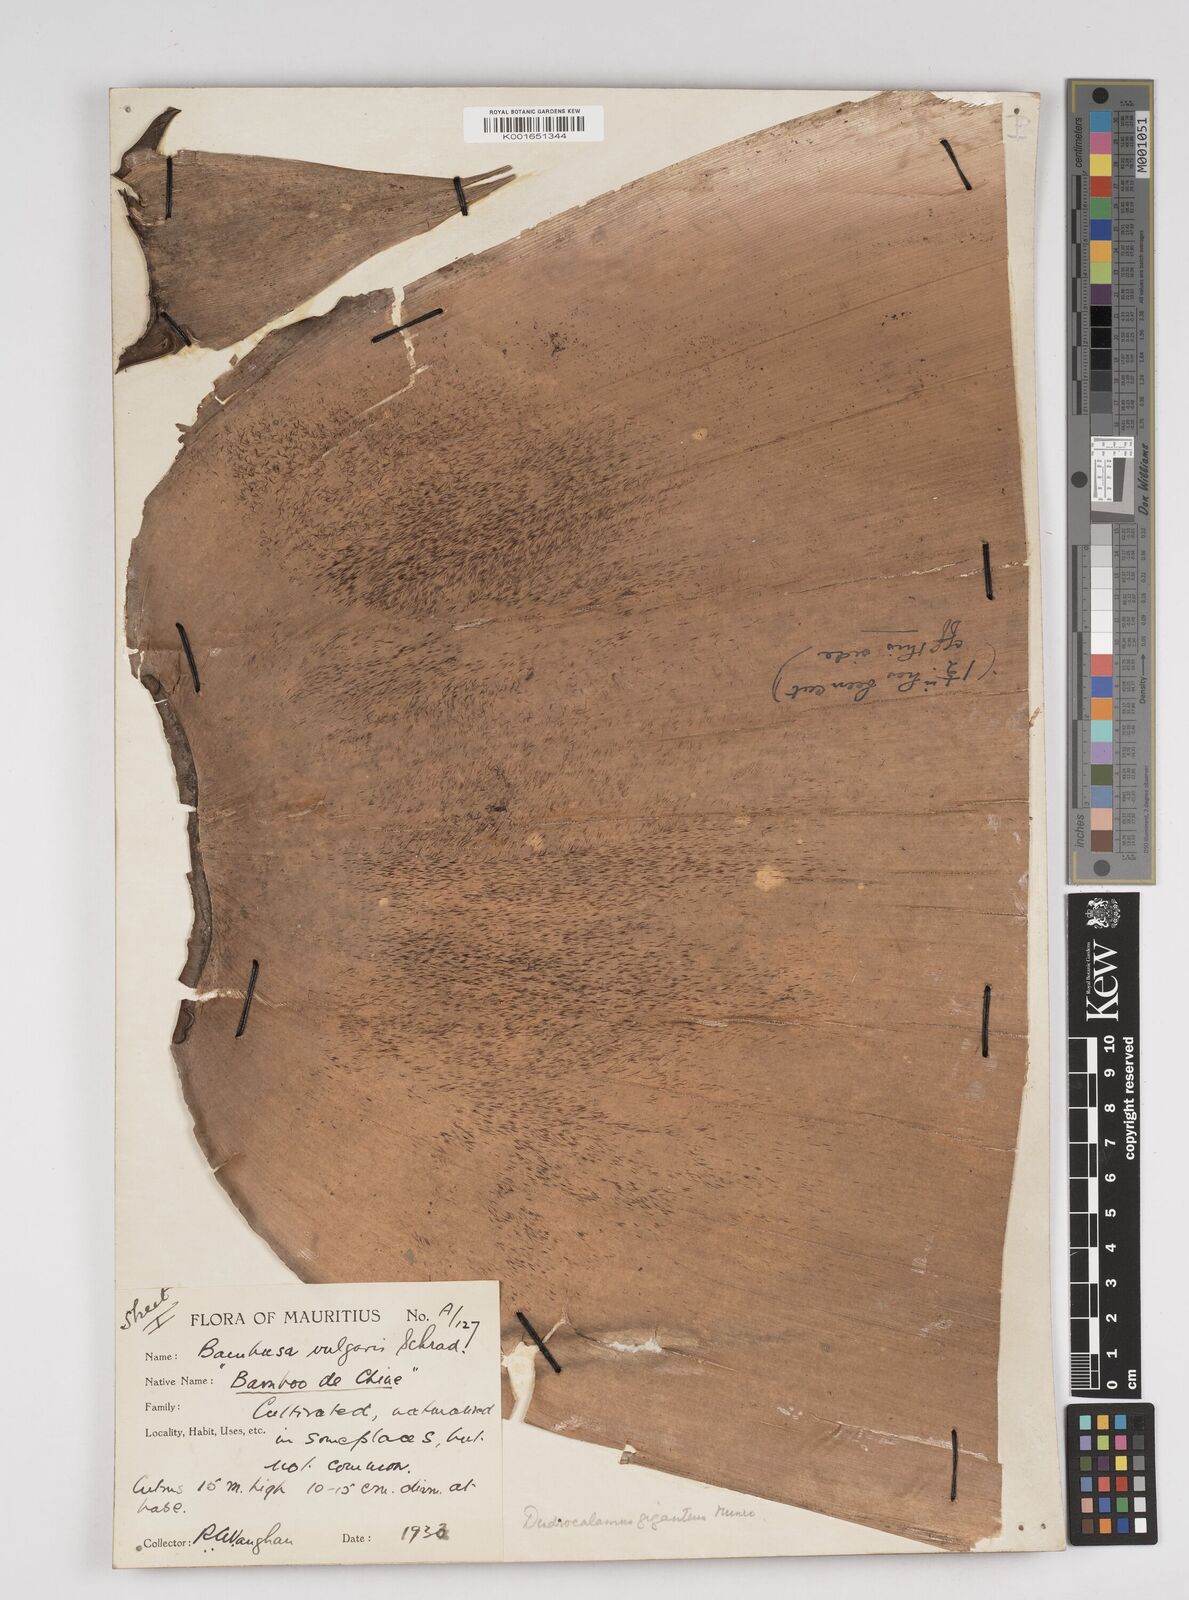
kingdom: Plantae
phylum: Tracheophyta
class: Liliopsida
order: Poales
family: Poaceae
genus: Dendrocalamus
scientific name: Dendrocalamus giganteus
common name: Giant bamboo
